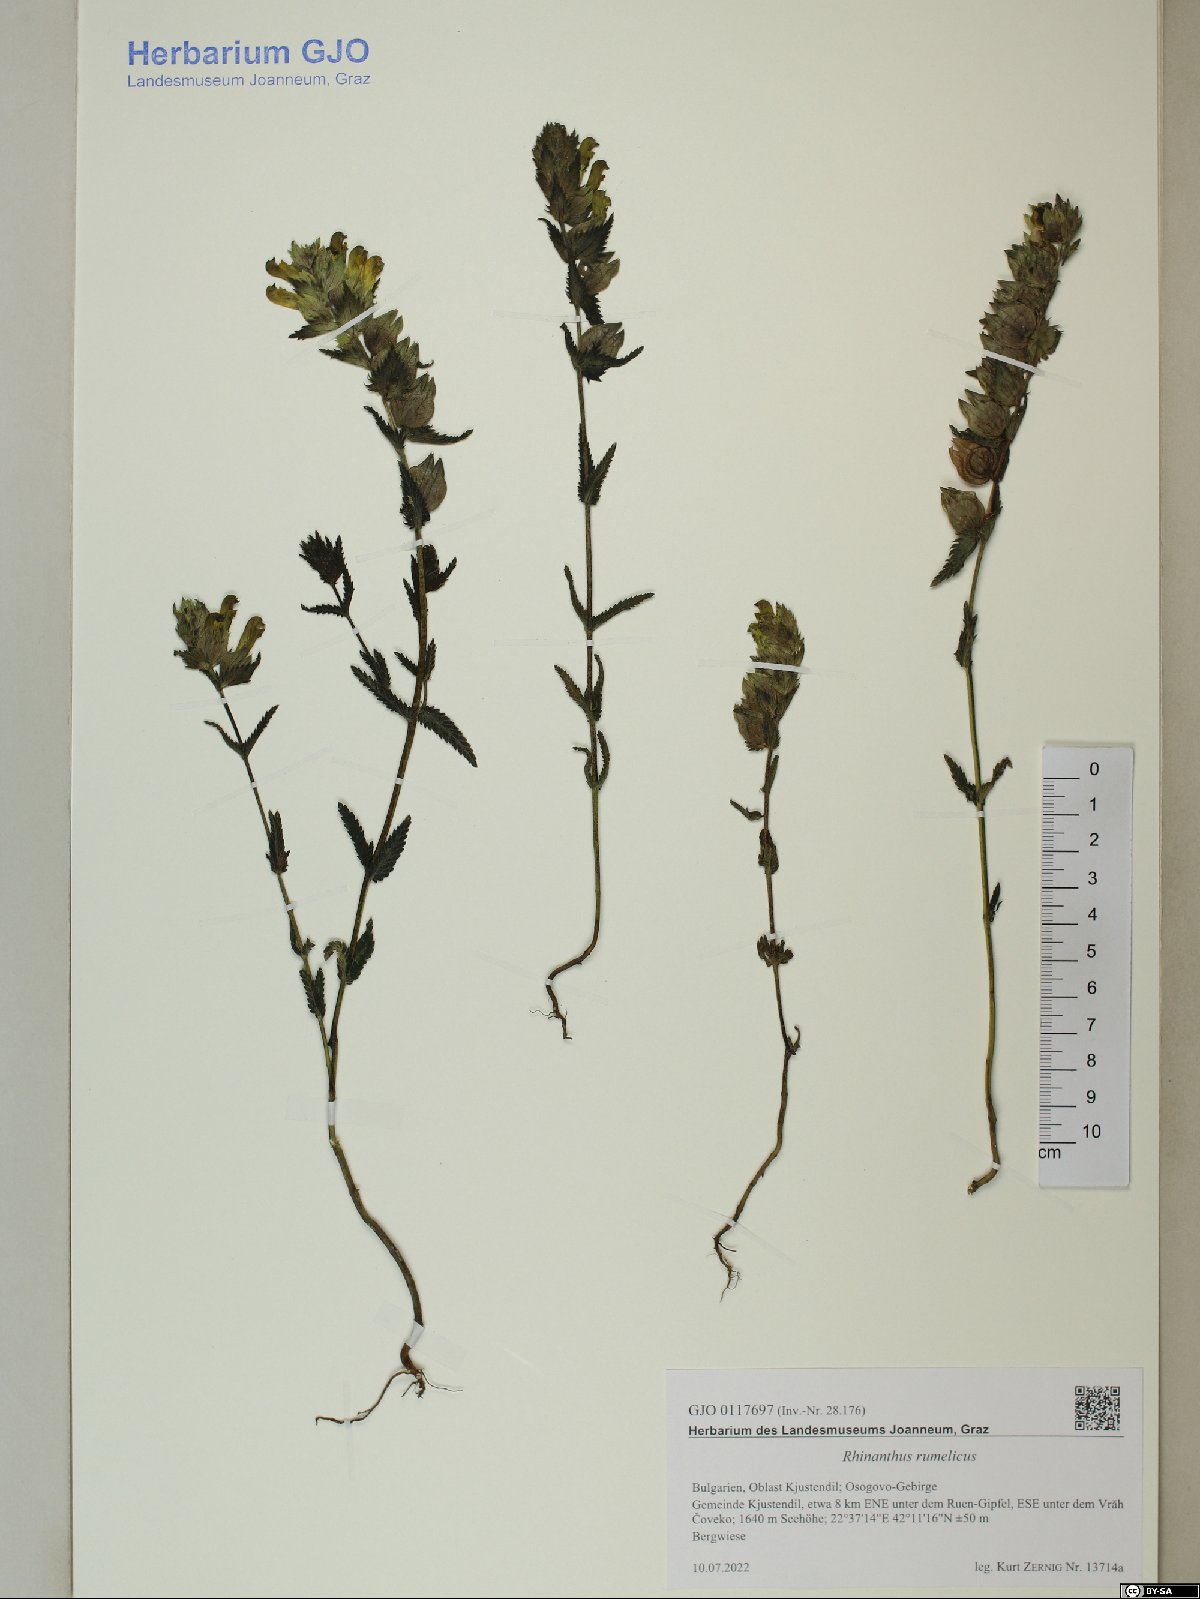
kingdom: Plantae
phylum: Tracheophyta
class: Magnoliopsida
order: Lamiales
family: Orobanchaceae
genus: Rhinanthus
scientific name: Rhinanthus rumelicus
